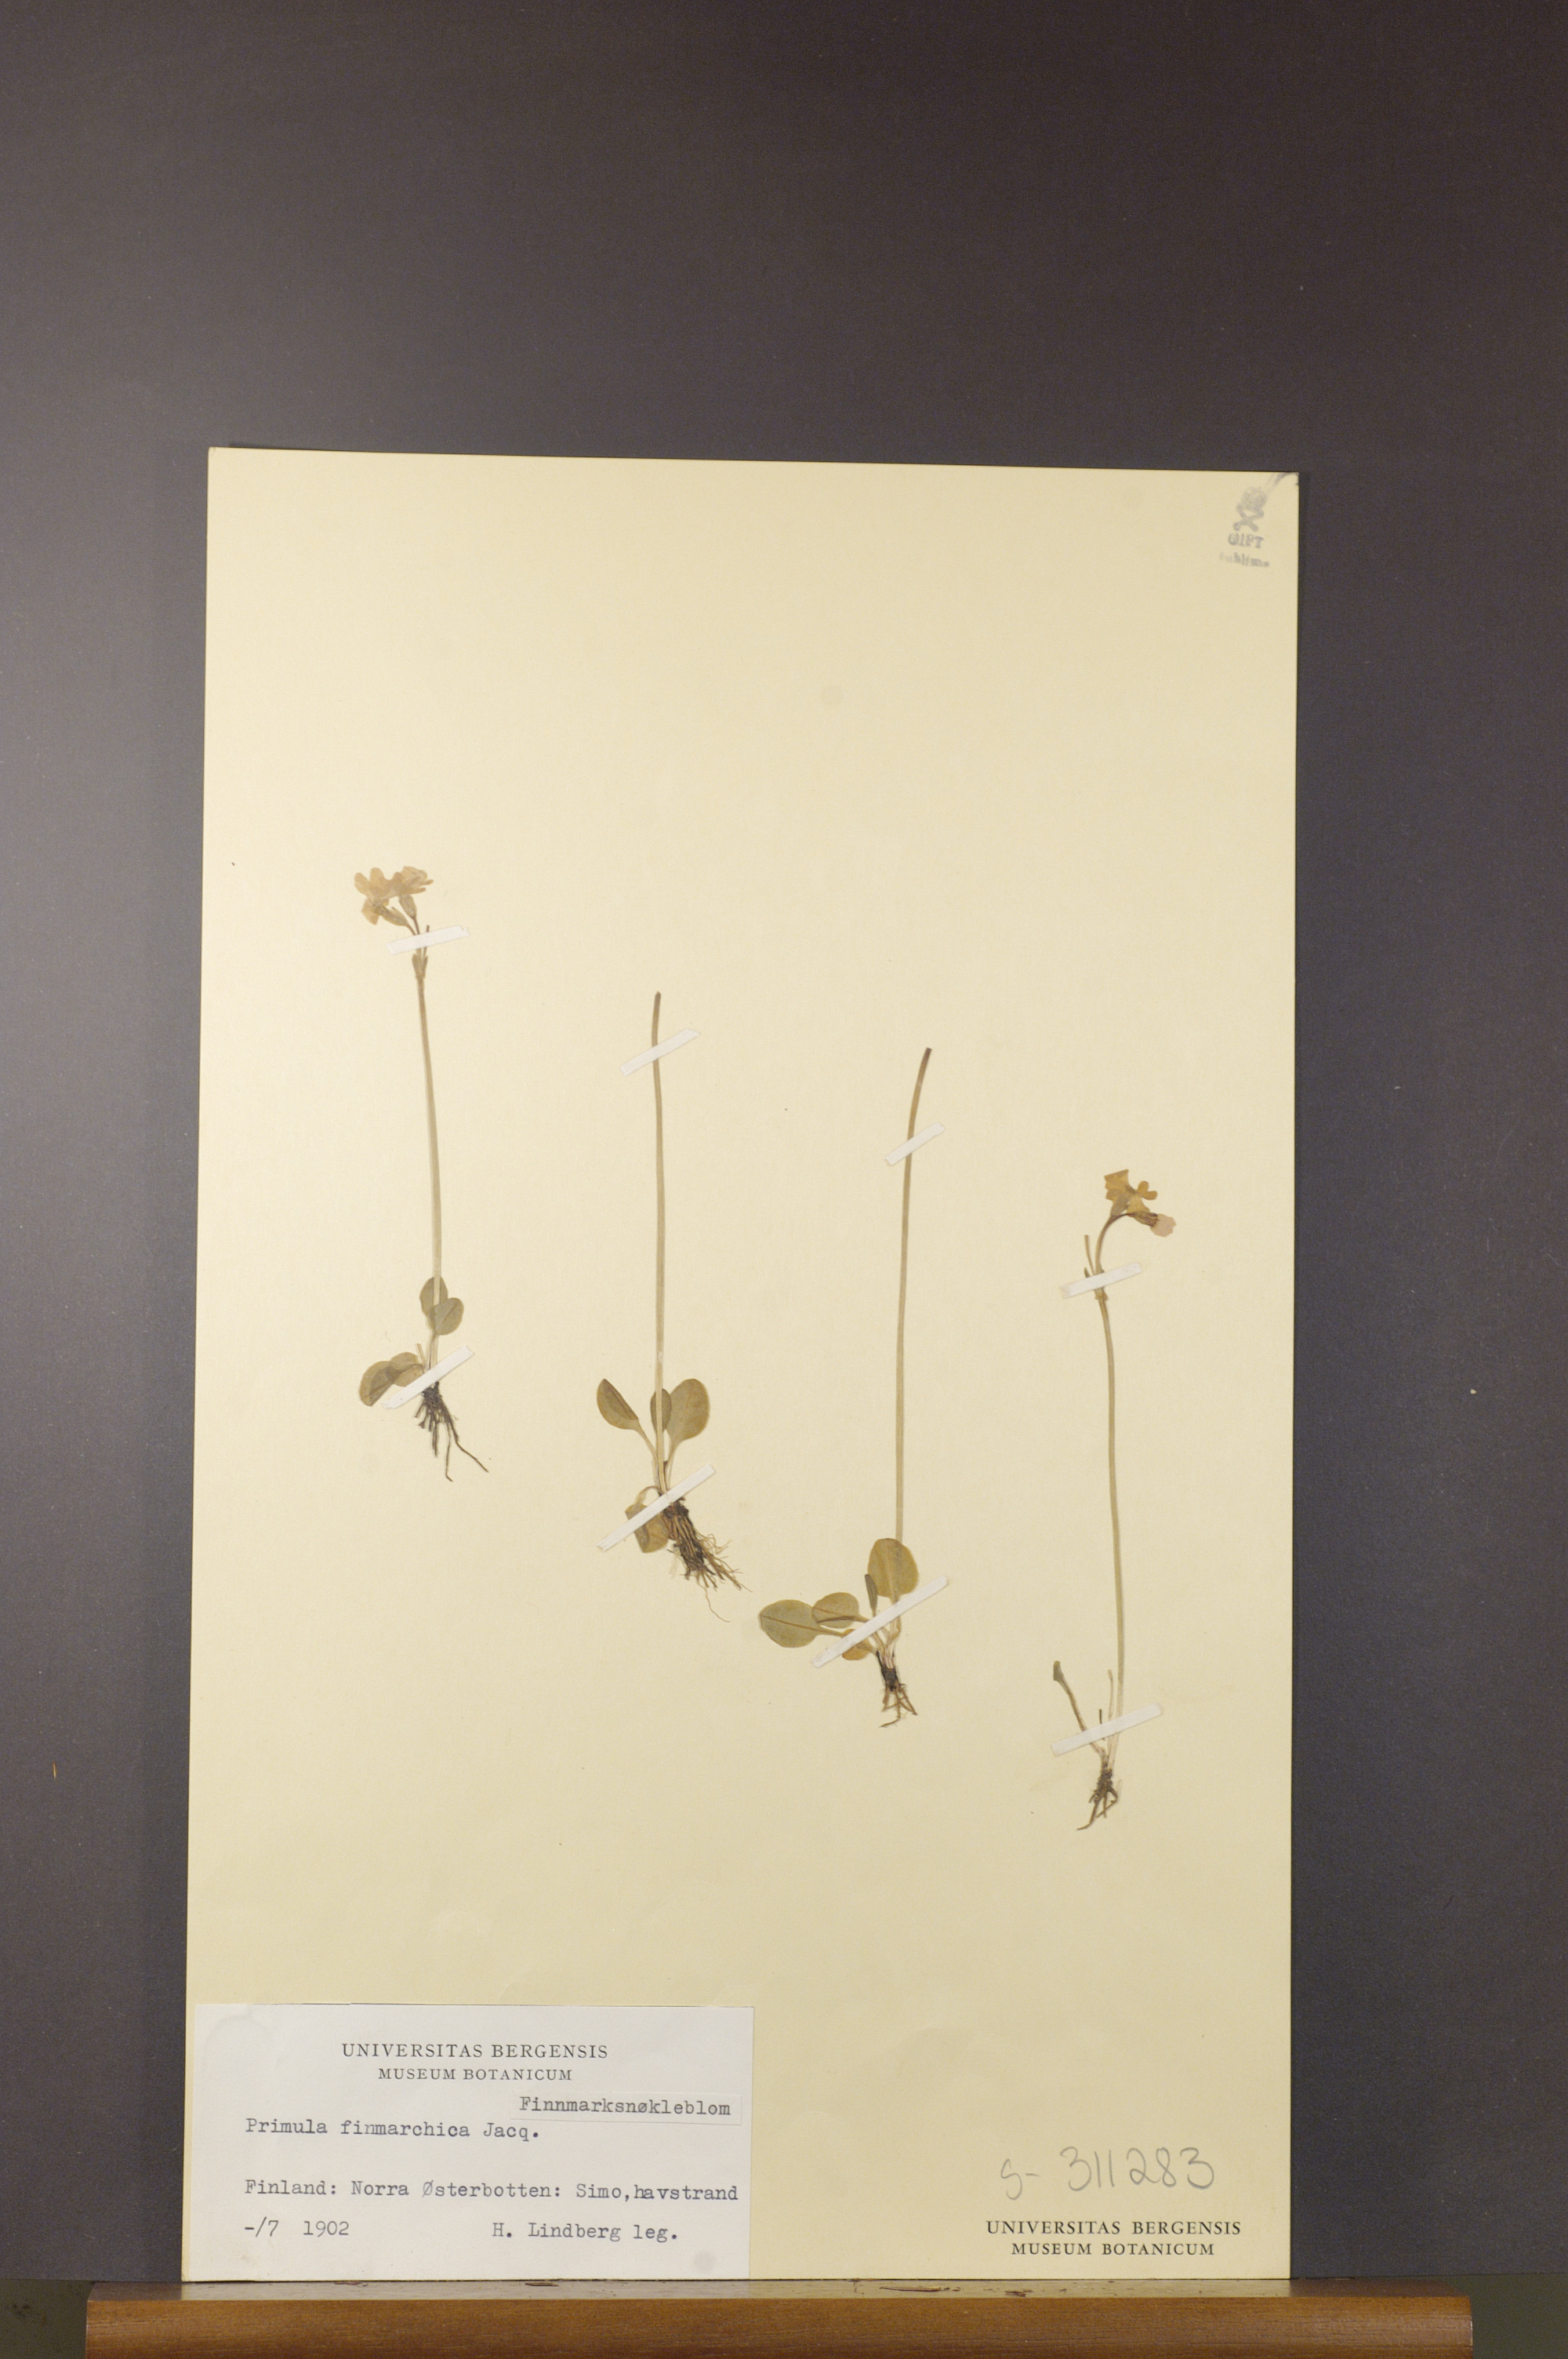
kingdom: Plantae
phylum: Tracheophyta
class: Magnoliopsida
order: Ericales
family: Primulaceae
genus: Primula
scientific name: Primula nutans
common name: Siberian primrose
